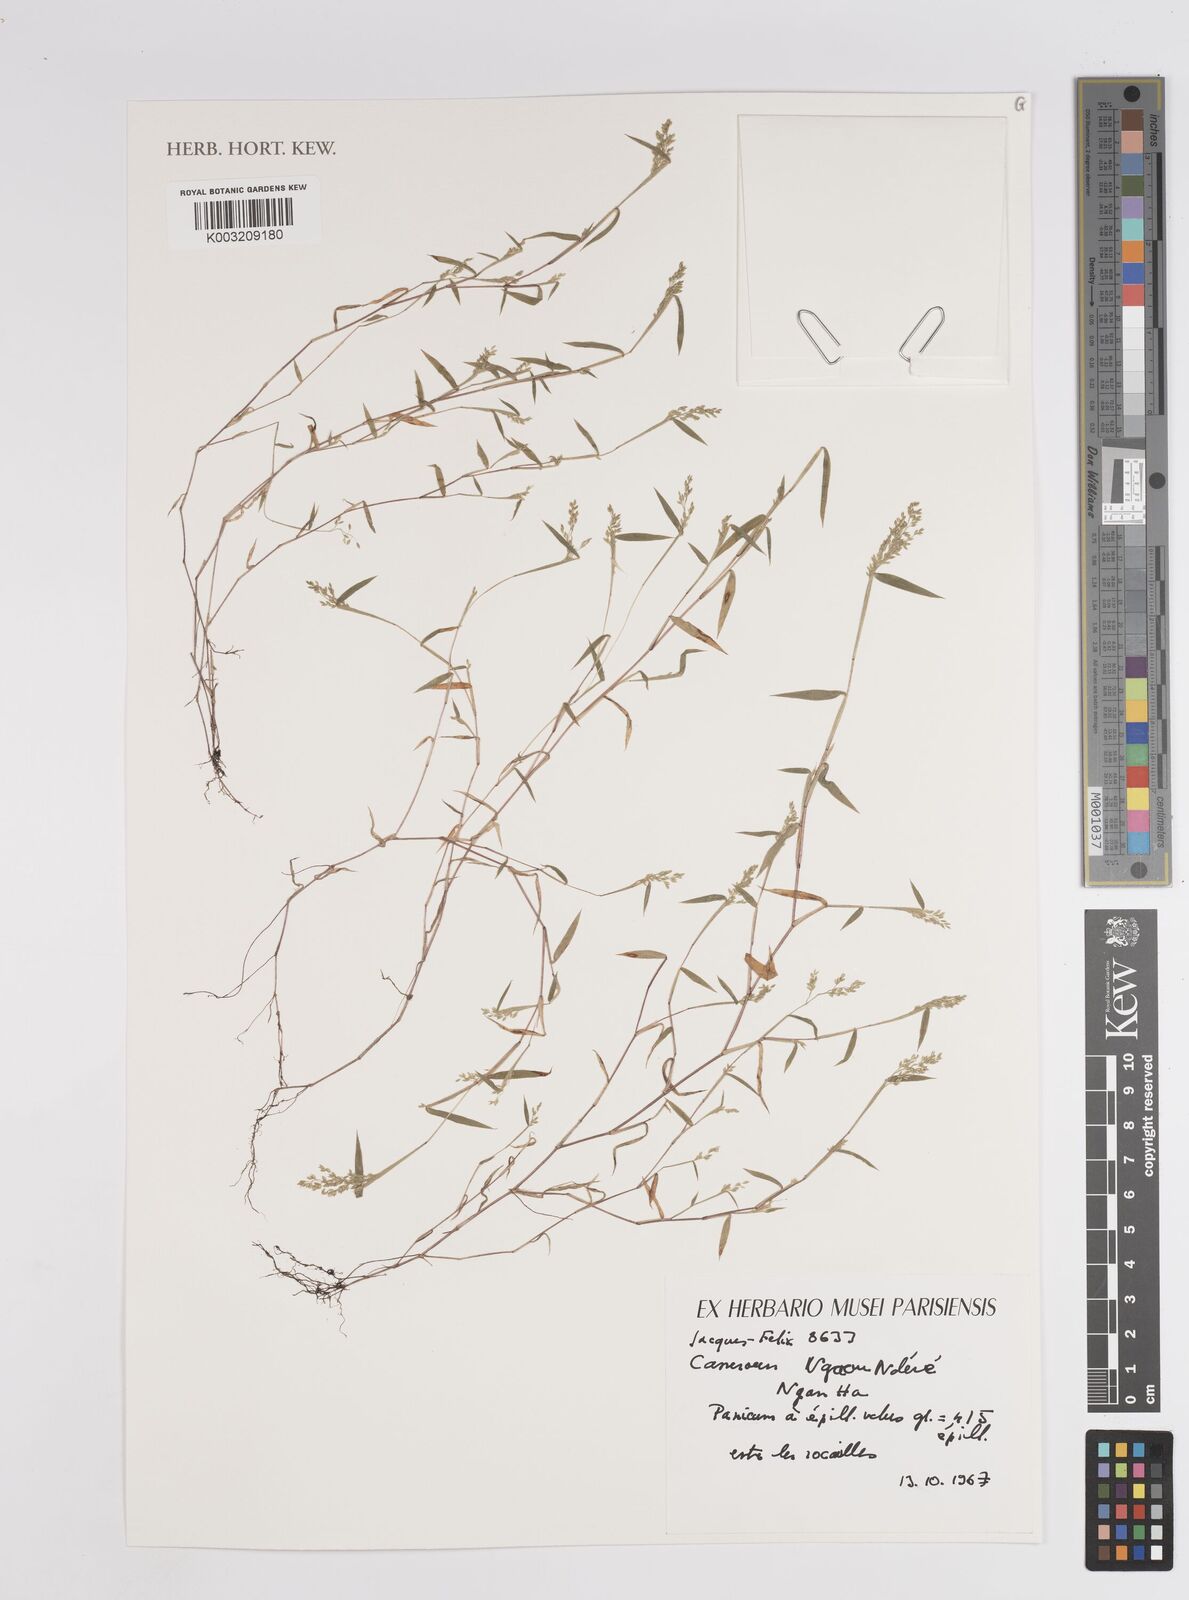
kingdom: Plantae
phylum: Tracheophyta
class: Liliopsida
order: Poales
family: Poaceae
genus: Panicum
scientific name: Panicum
